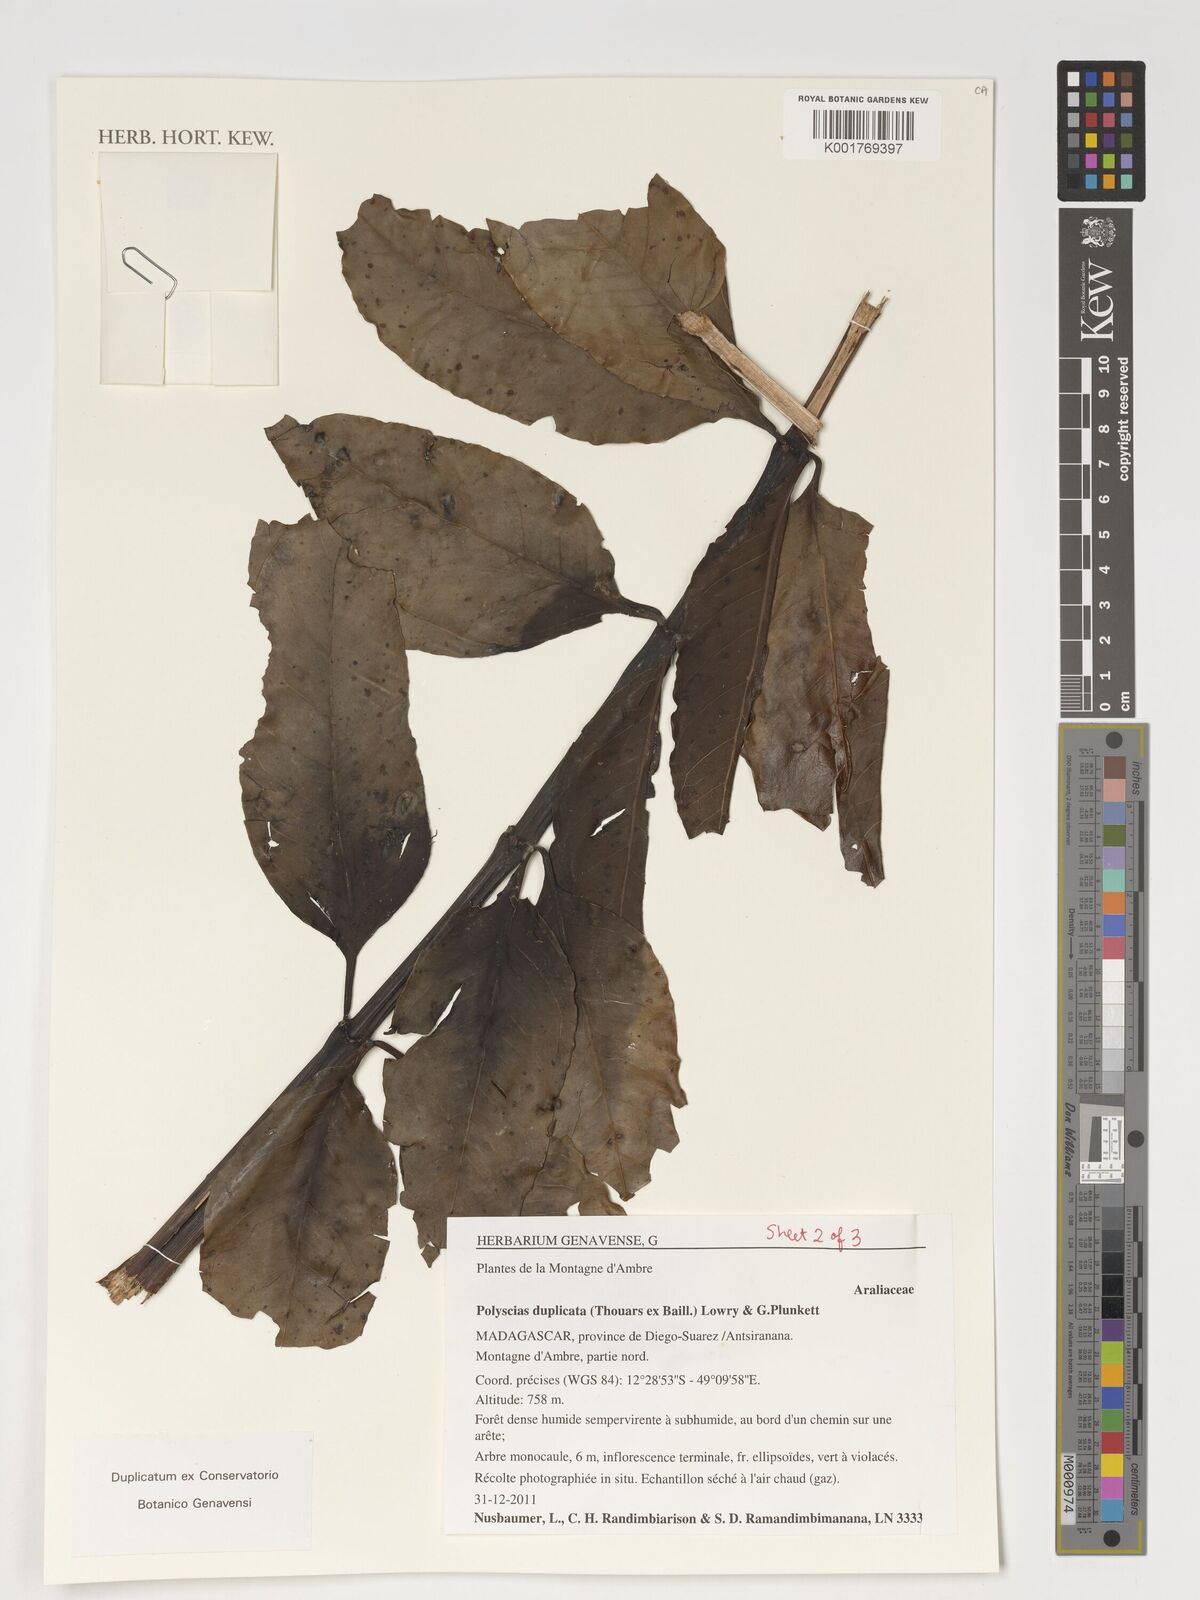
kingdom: Plantae
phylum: Tracheophyta
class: Magnoliopsida
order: Apiales
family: Araliaceae
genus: Polyscias
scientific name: Polyscias duplicata
